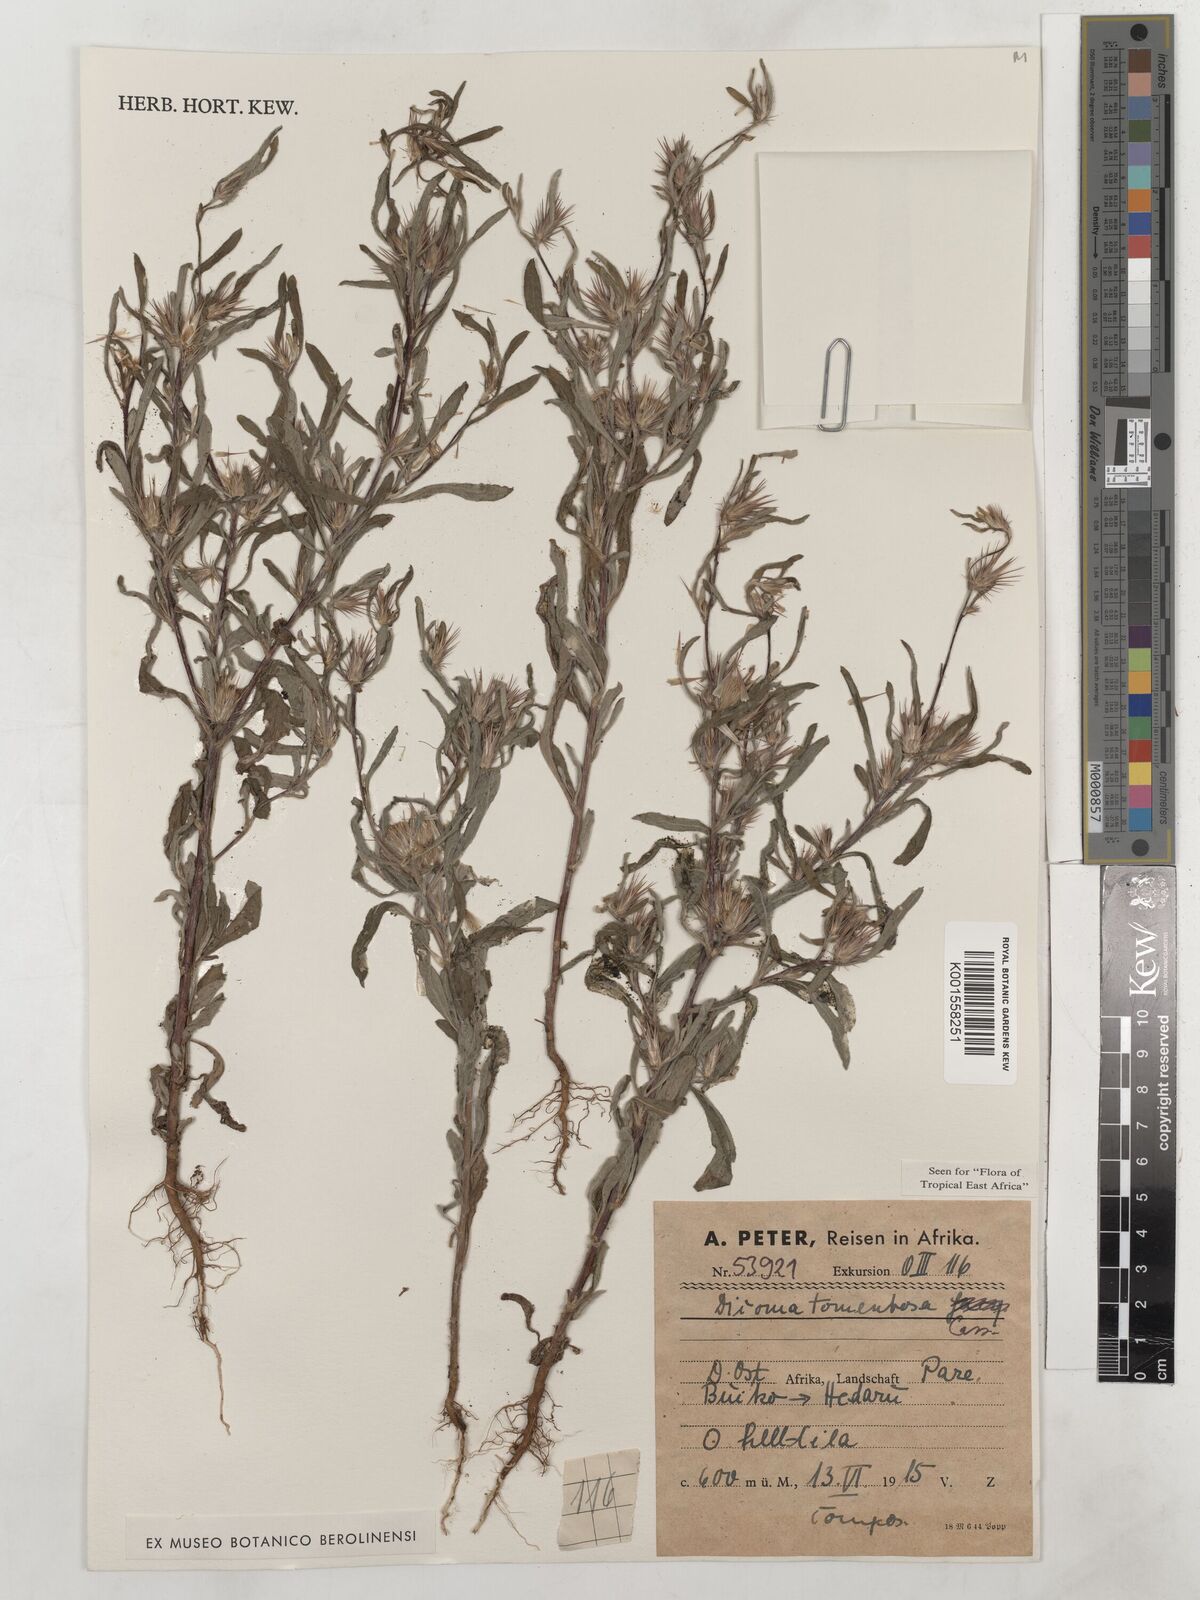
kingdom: Plantae
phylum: Tracheophyta
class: Magnoliopsida
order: Asterales
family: Asteraceae
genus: Dicoma
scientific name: Dicoma tomentosa
